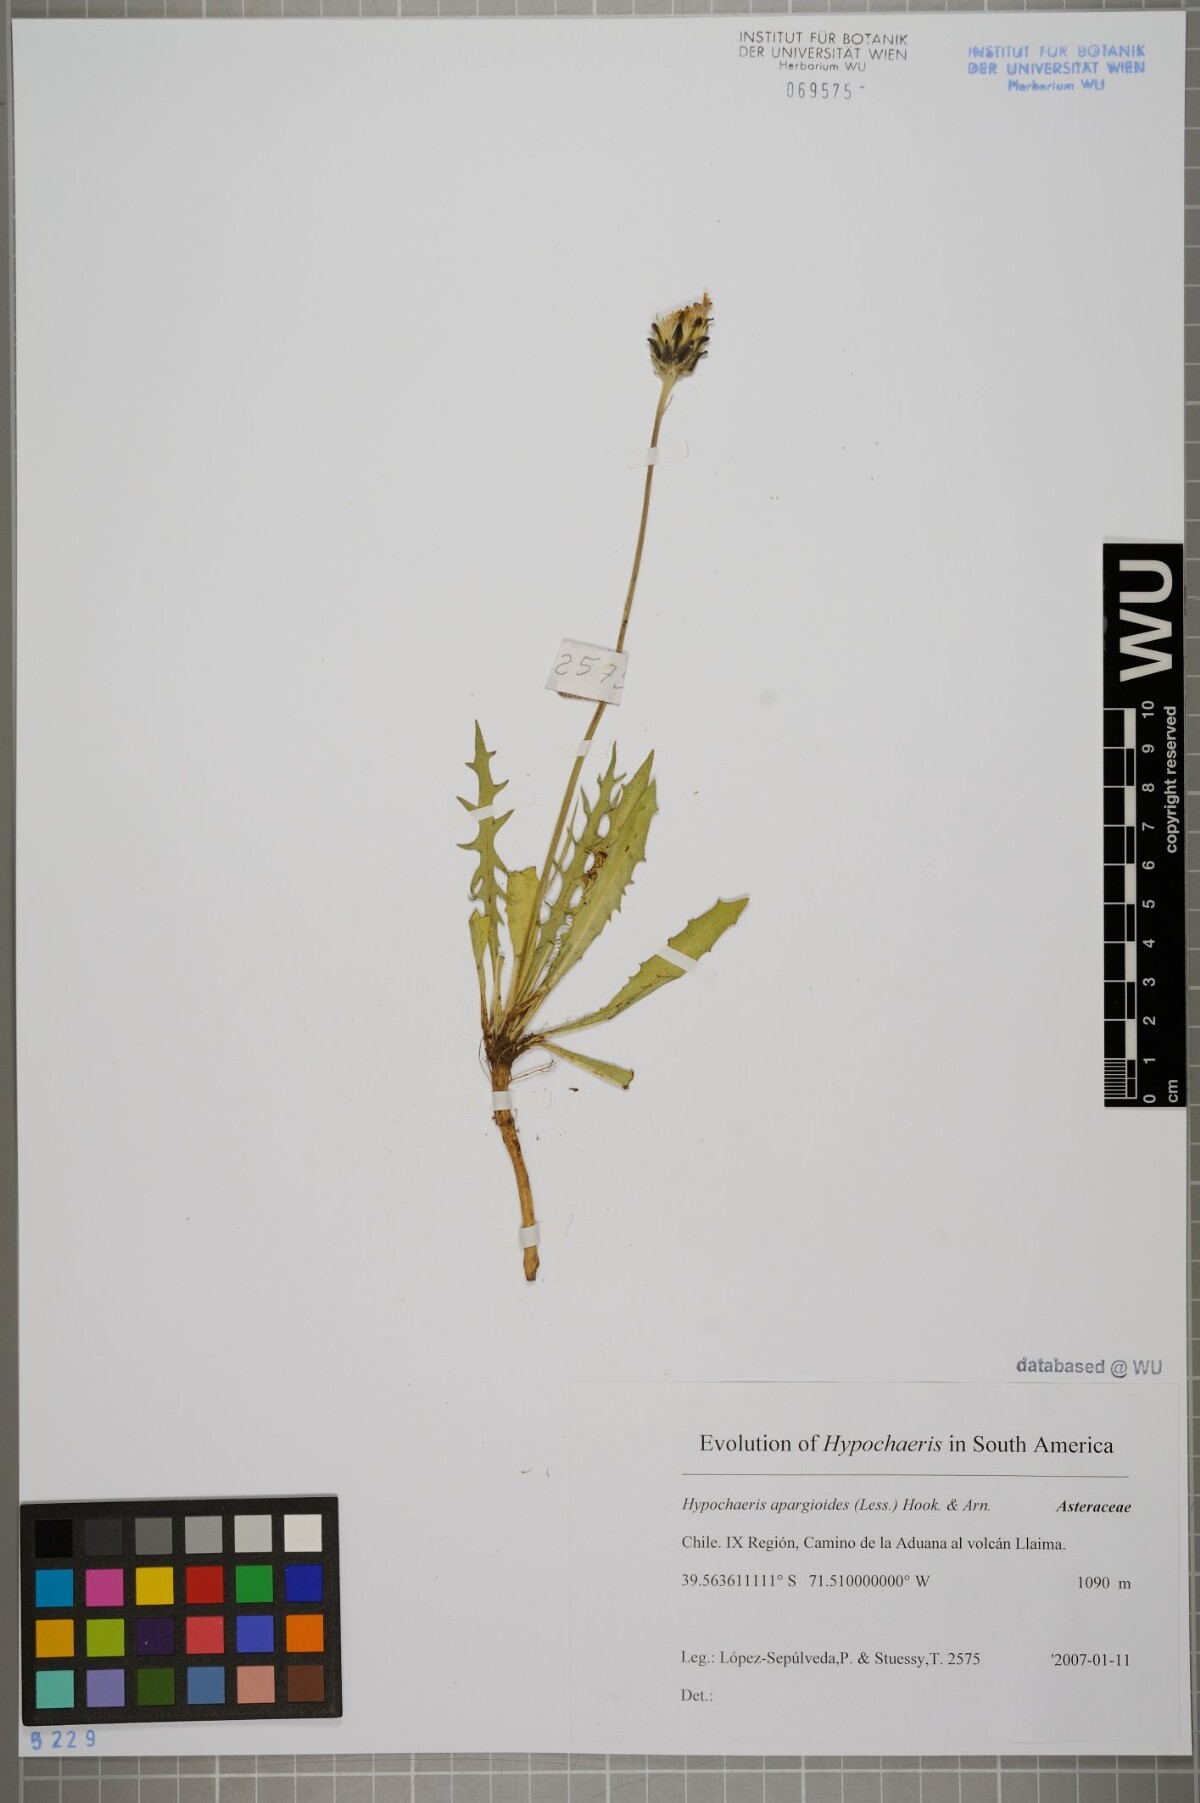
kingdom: Plantae
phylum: Tracheophyta
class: Magnoliopsida
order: Asterales
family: Asteraceae
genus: Hypochaeris
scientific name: Hypochaeris apargioides
